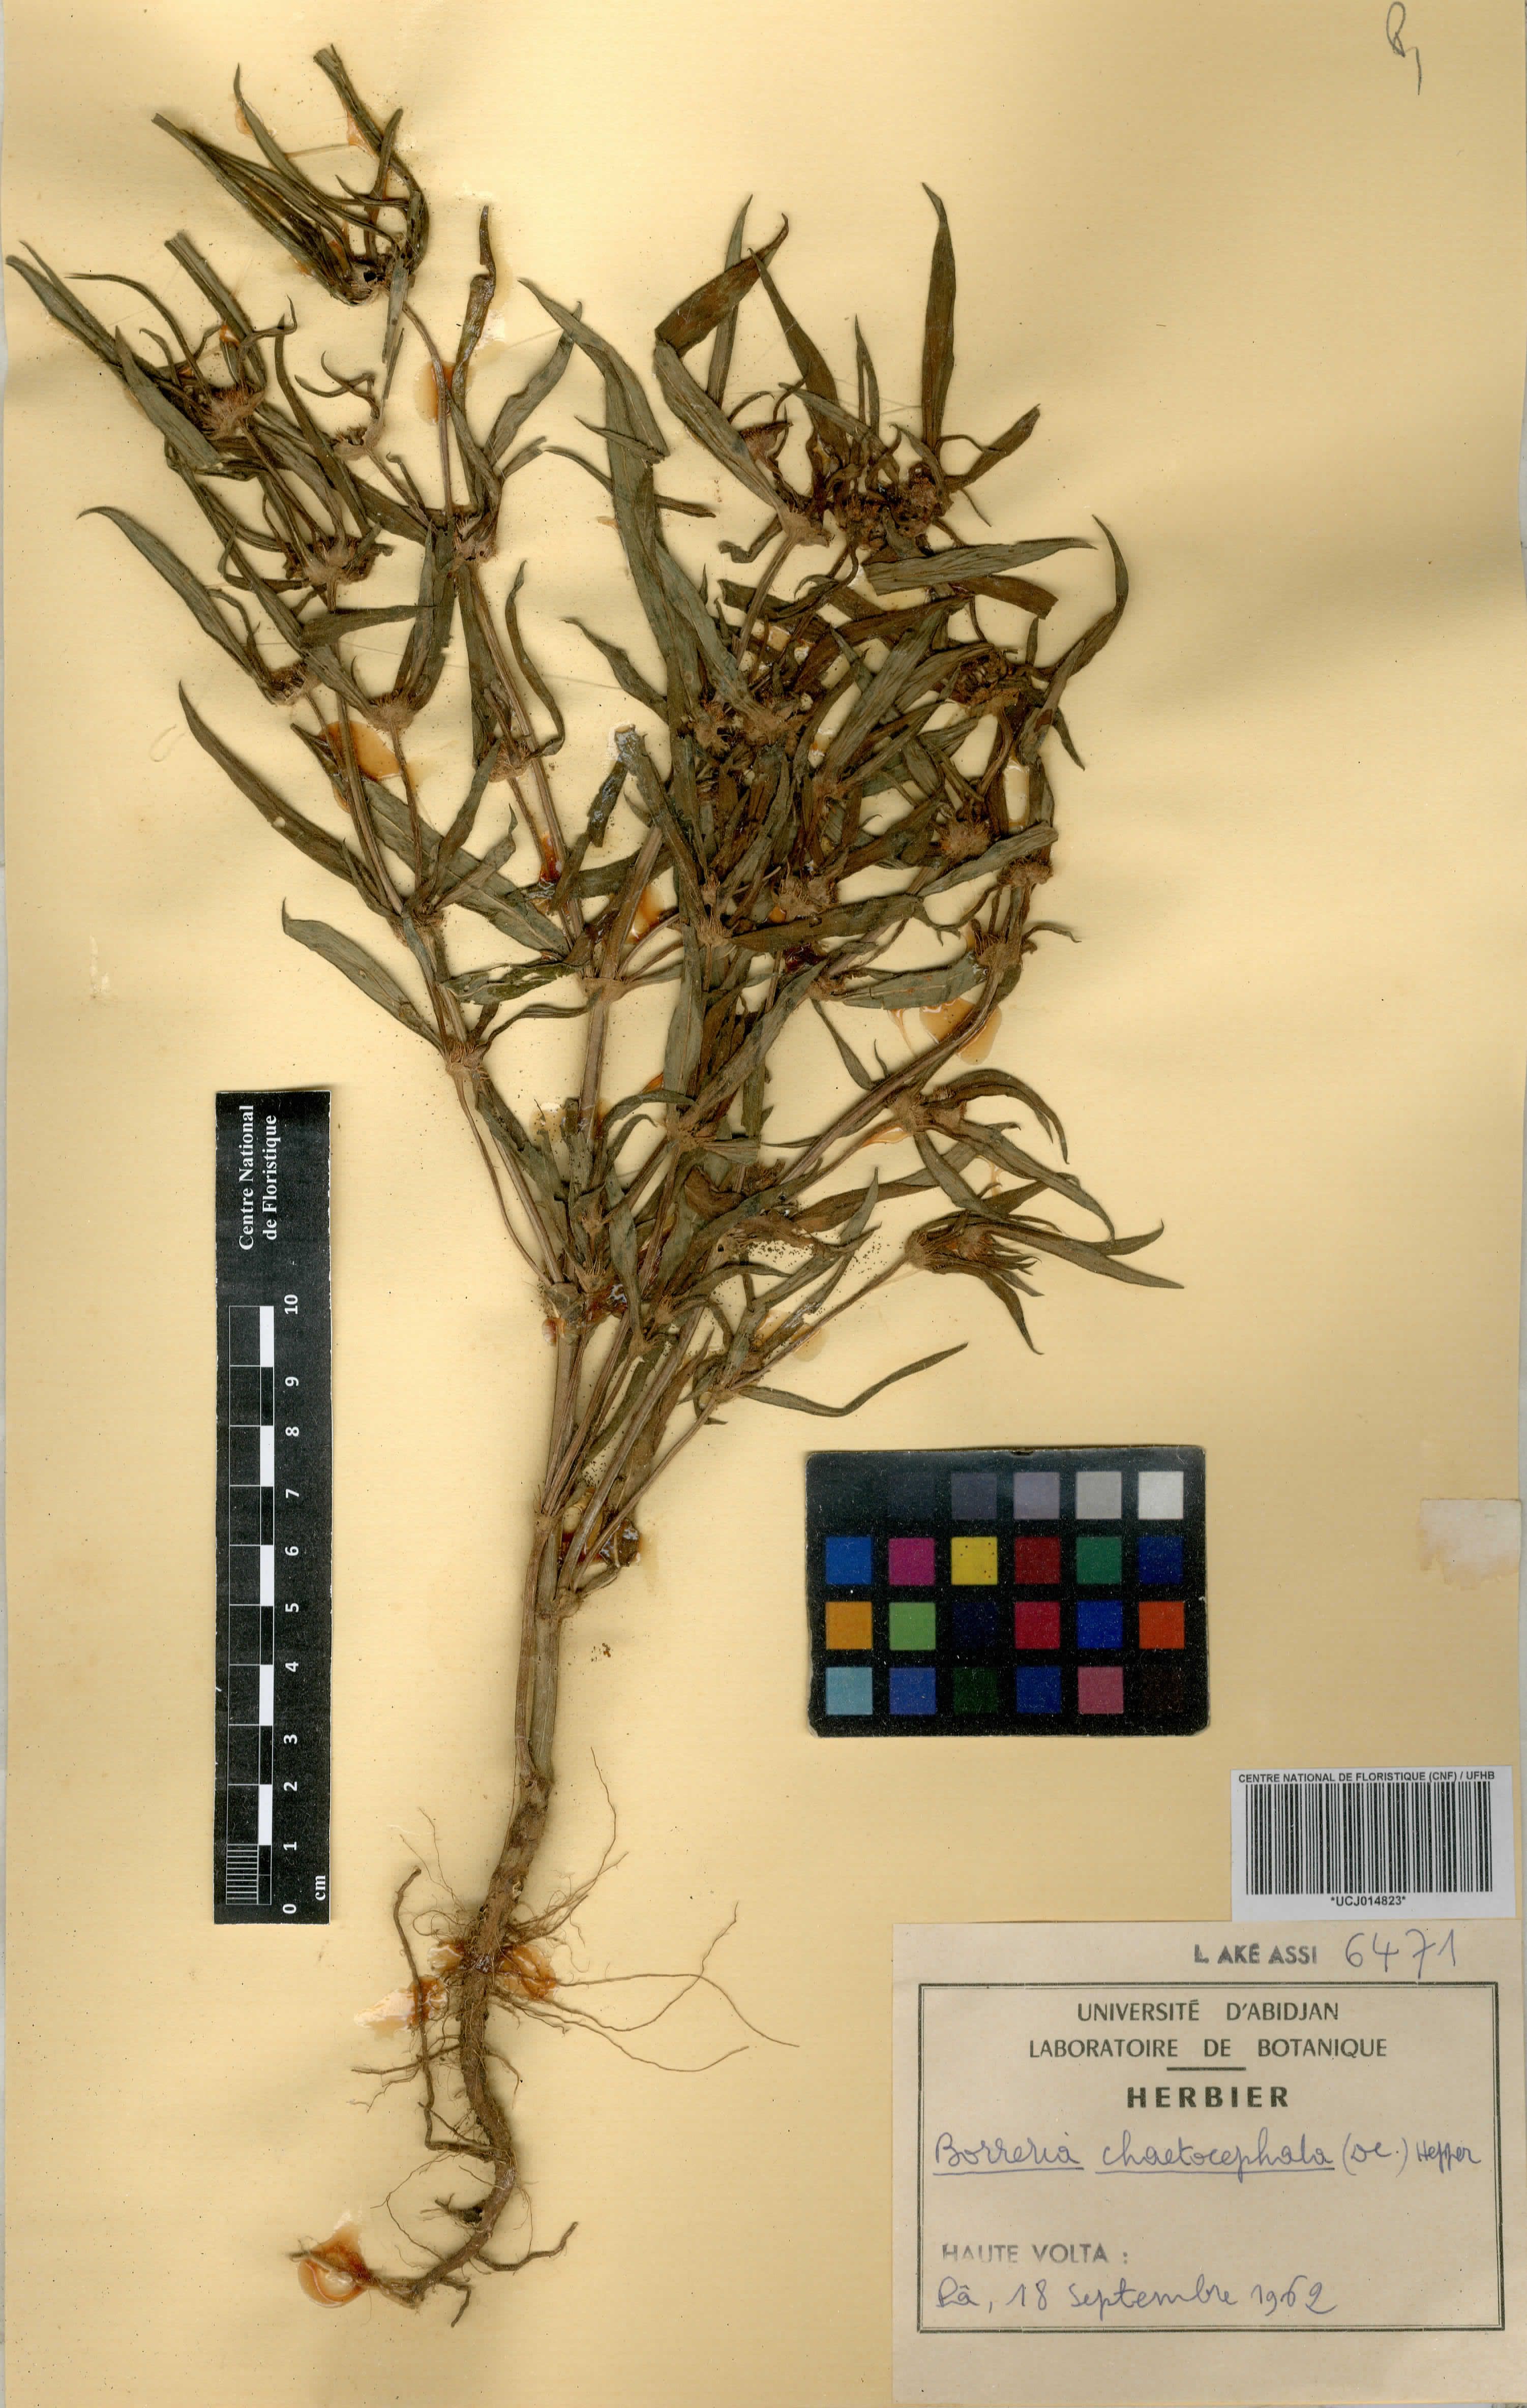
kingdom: Plantae
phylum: Tracheophyta
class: Magnoliopsida
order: Gentianales
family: Rubiaceae
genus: Spermacoce
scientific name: Spermacoce chaetocephala
